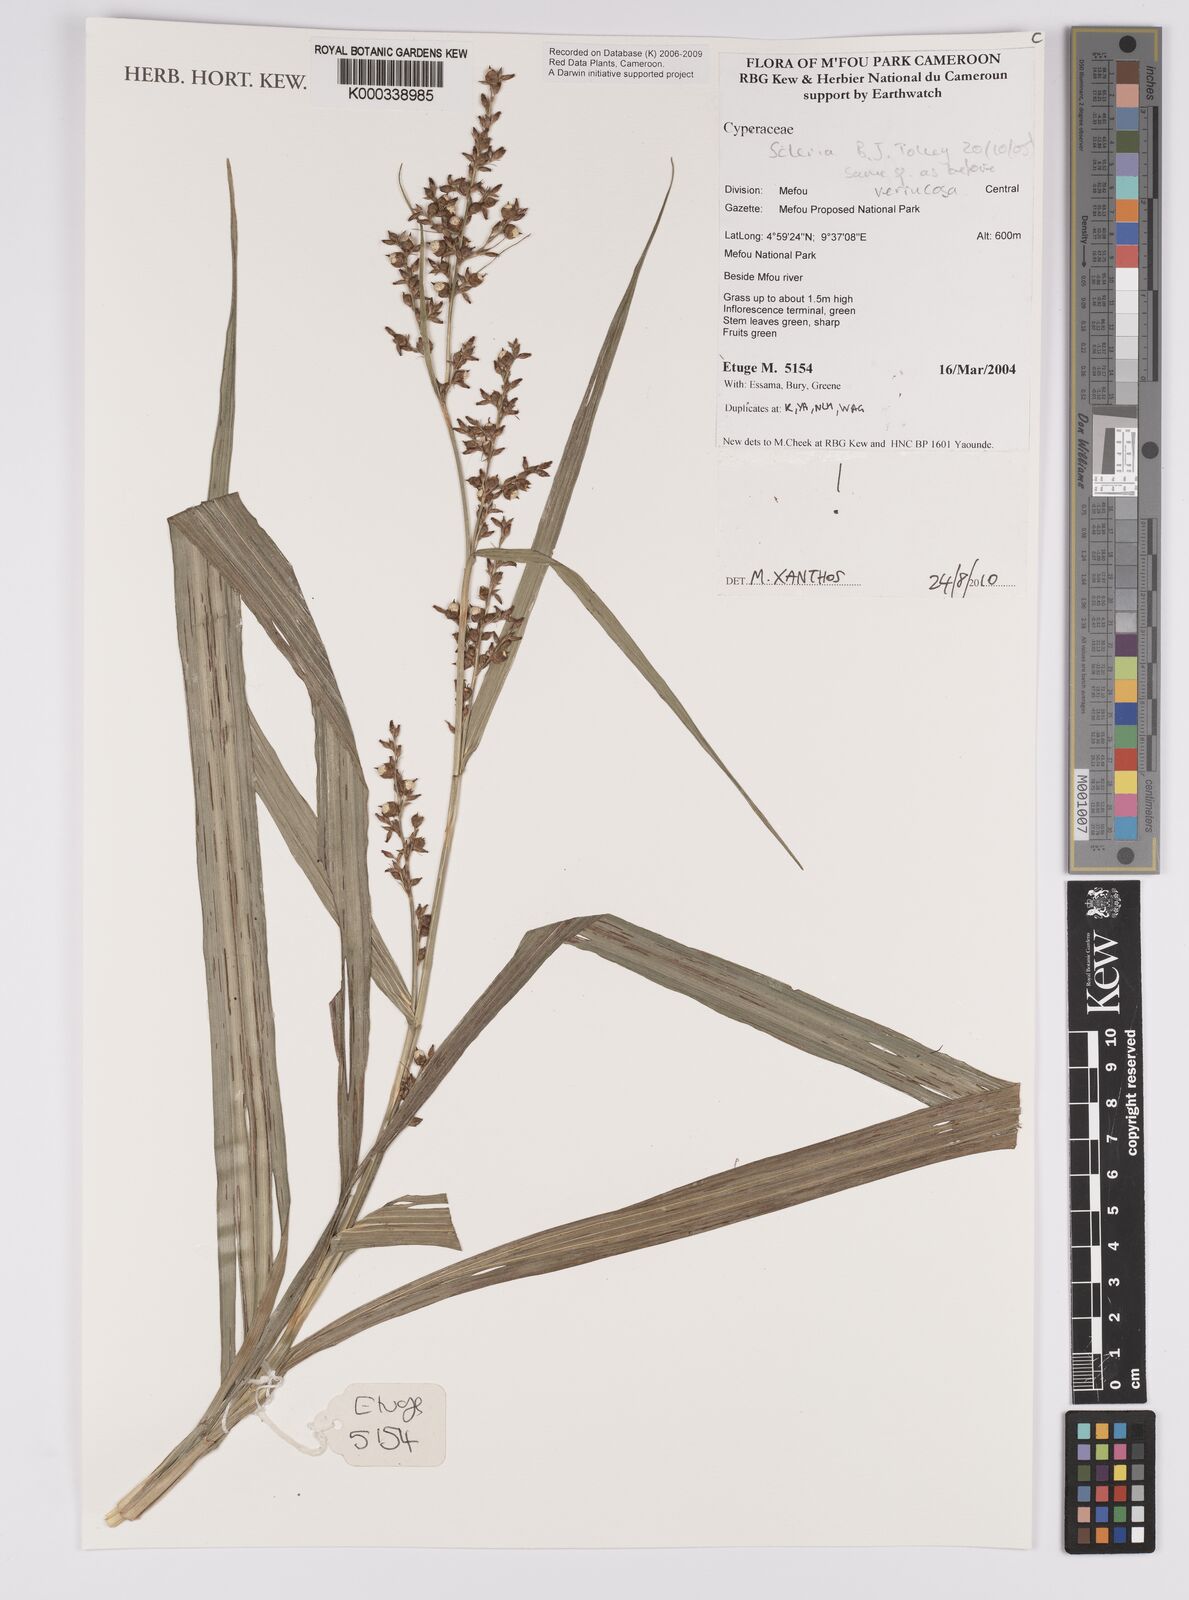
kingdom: Plantae
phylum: Tracheophyta
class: Liliopsida
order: Poales
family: Cyperaceae
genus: Scleria
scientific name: Scleria verrucosa
